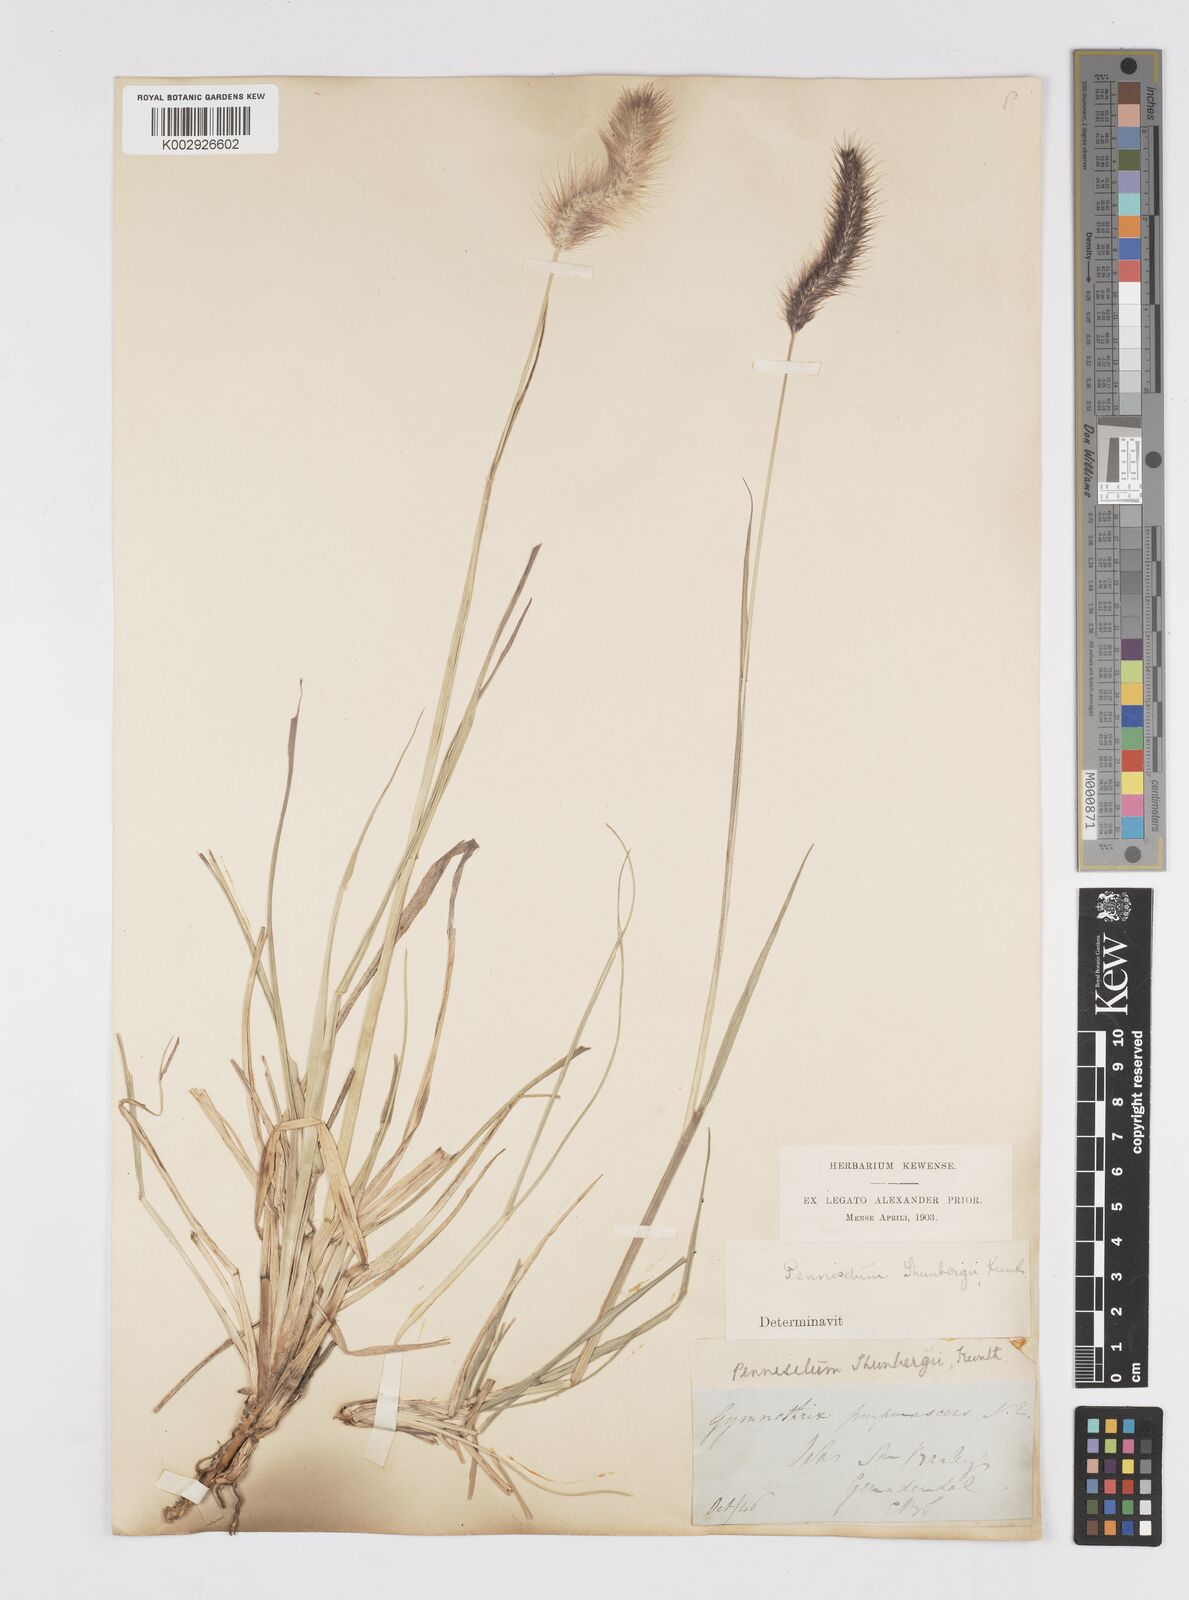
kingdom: Plantae
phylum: Tracheophyta
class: Liliopsida
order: Poales
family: Poaceae
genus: Cenchrus
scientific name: Cenchrus geniculatus
